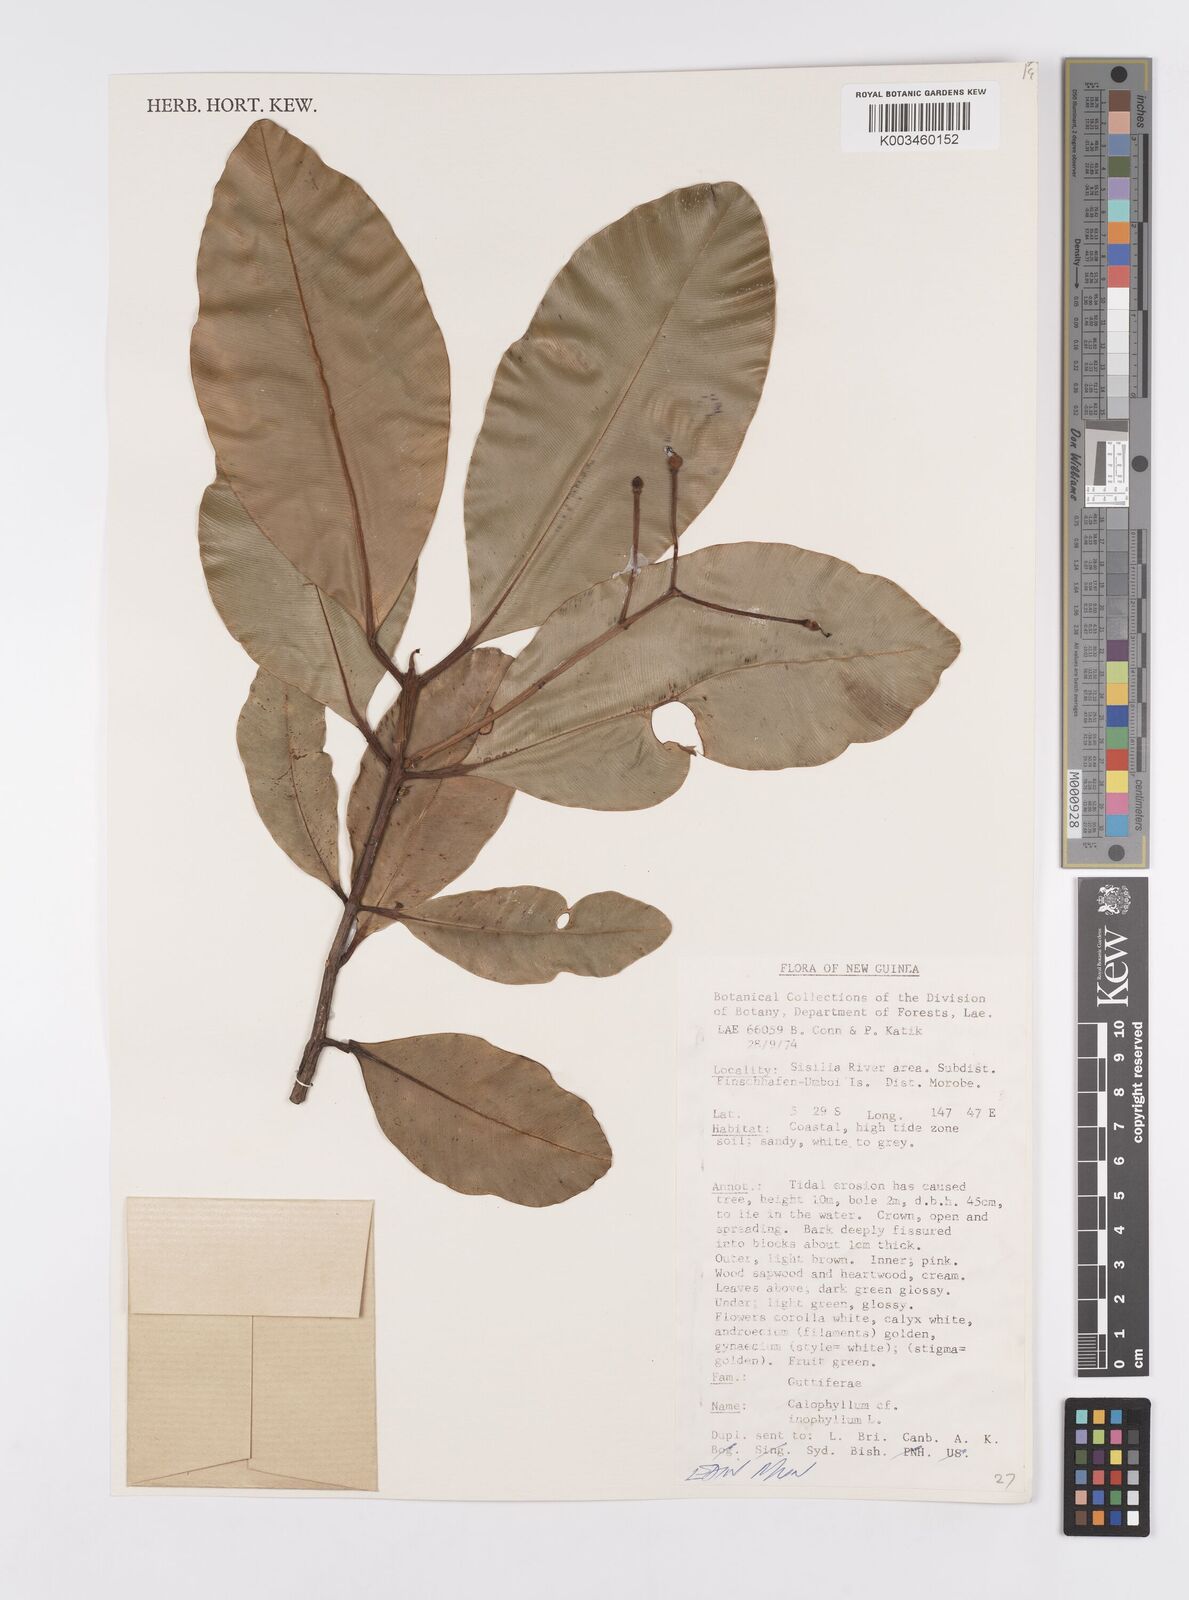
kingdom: Plantae
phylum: Tracheophyta
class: Magnoliopsida
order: Malpighiales
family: Calophyllaceae
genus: Calophyllum
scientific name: Calophyllum inophyllum
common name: Alexandrian laurel
